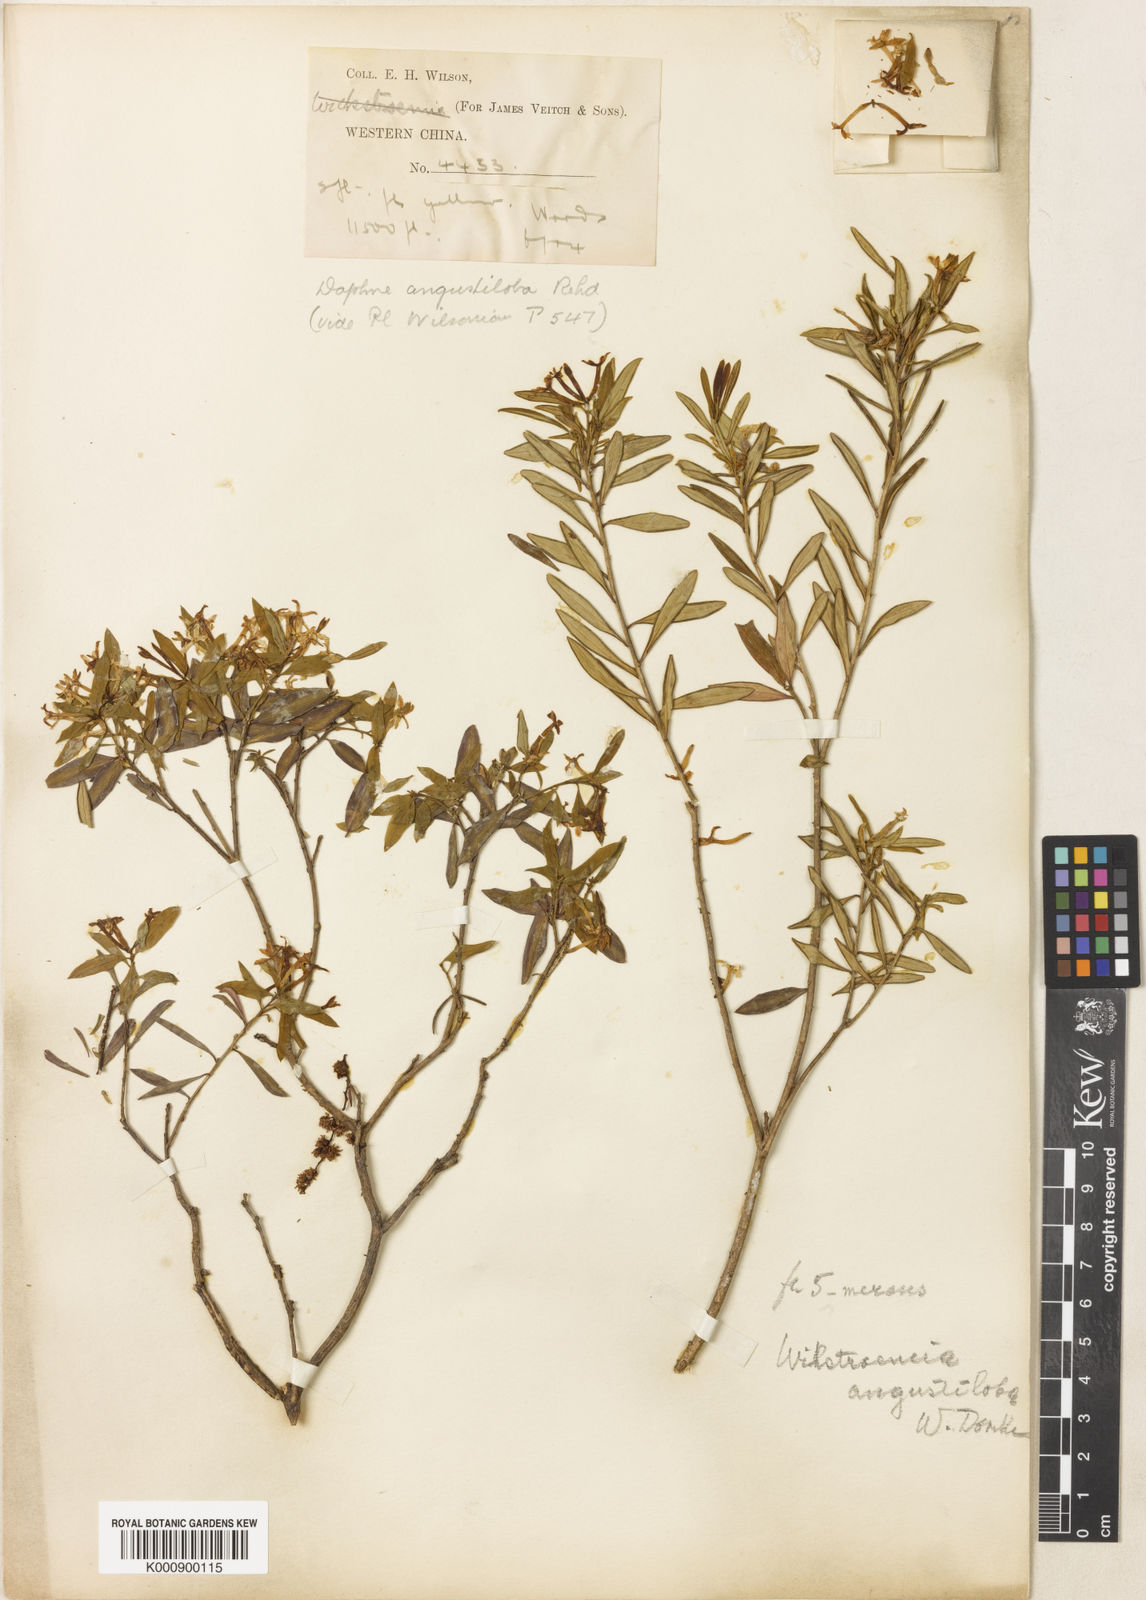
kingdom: Plantae
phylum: Tracheophyta
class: Magnoliopsida
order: Malvales
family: Thymelaeaceae
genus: Wikstroemia
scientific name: Wikstroemia angustiloba
